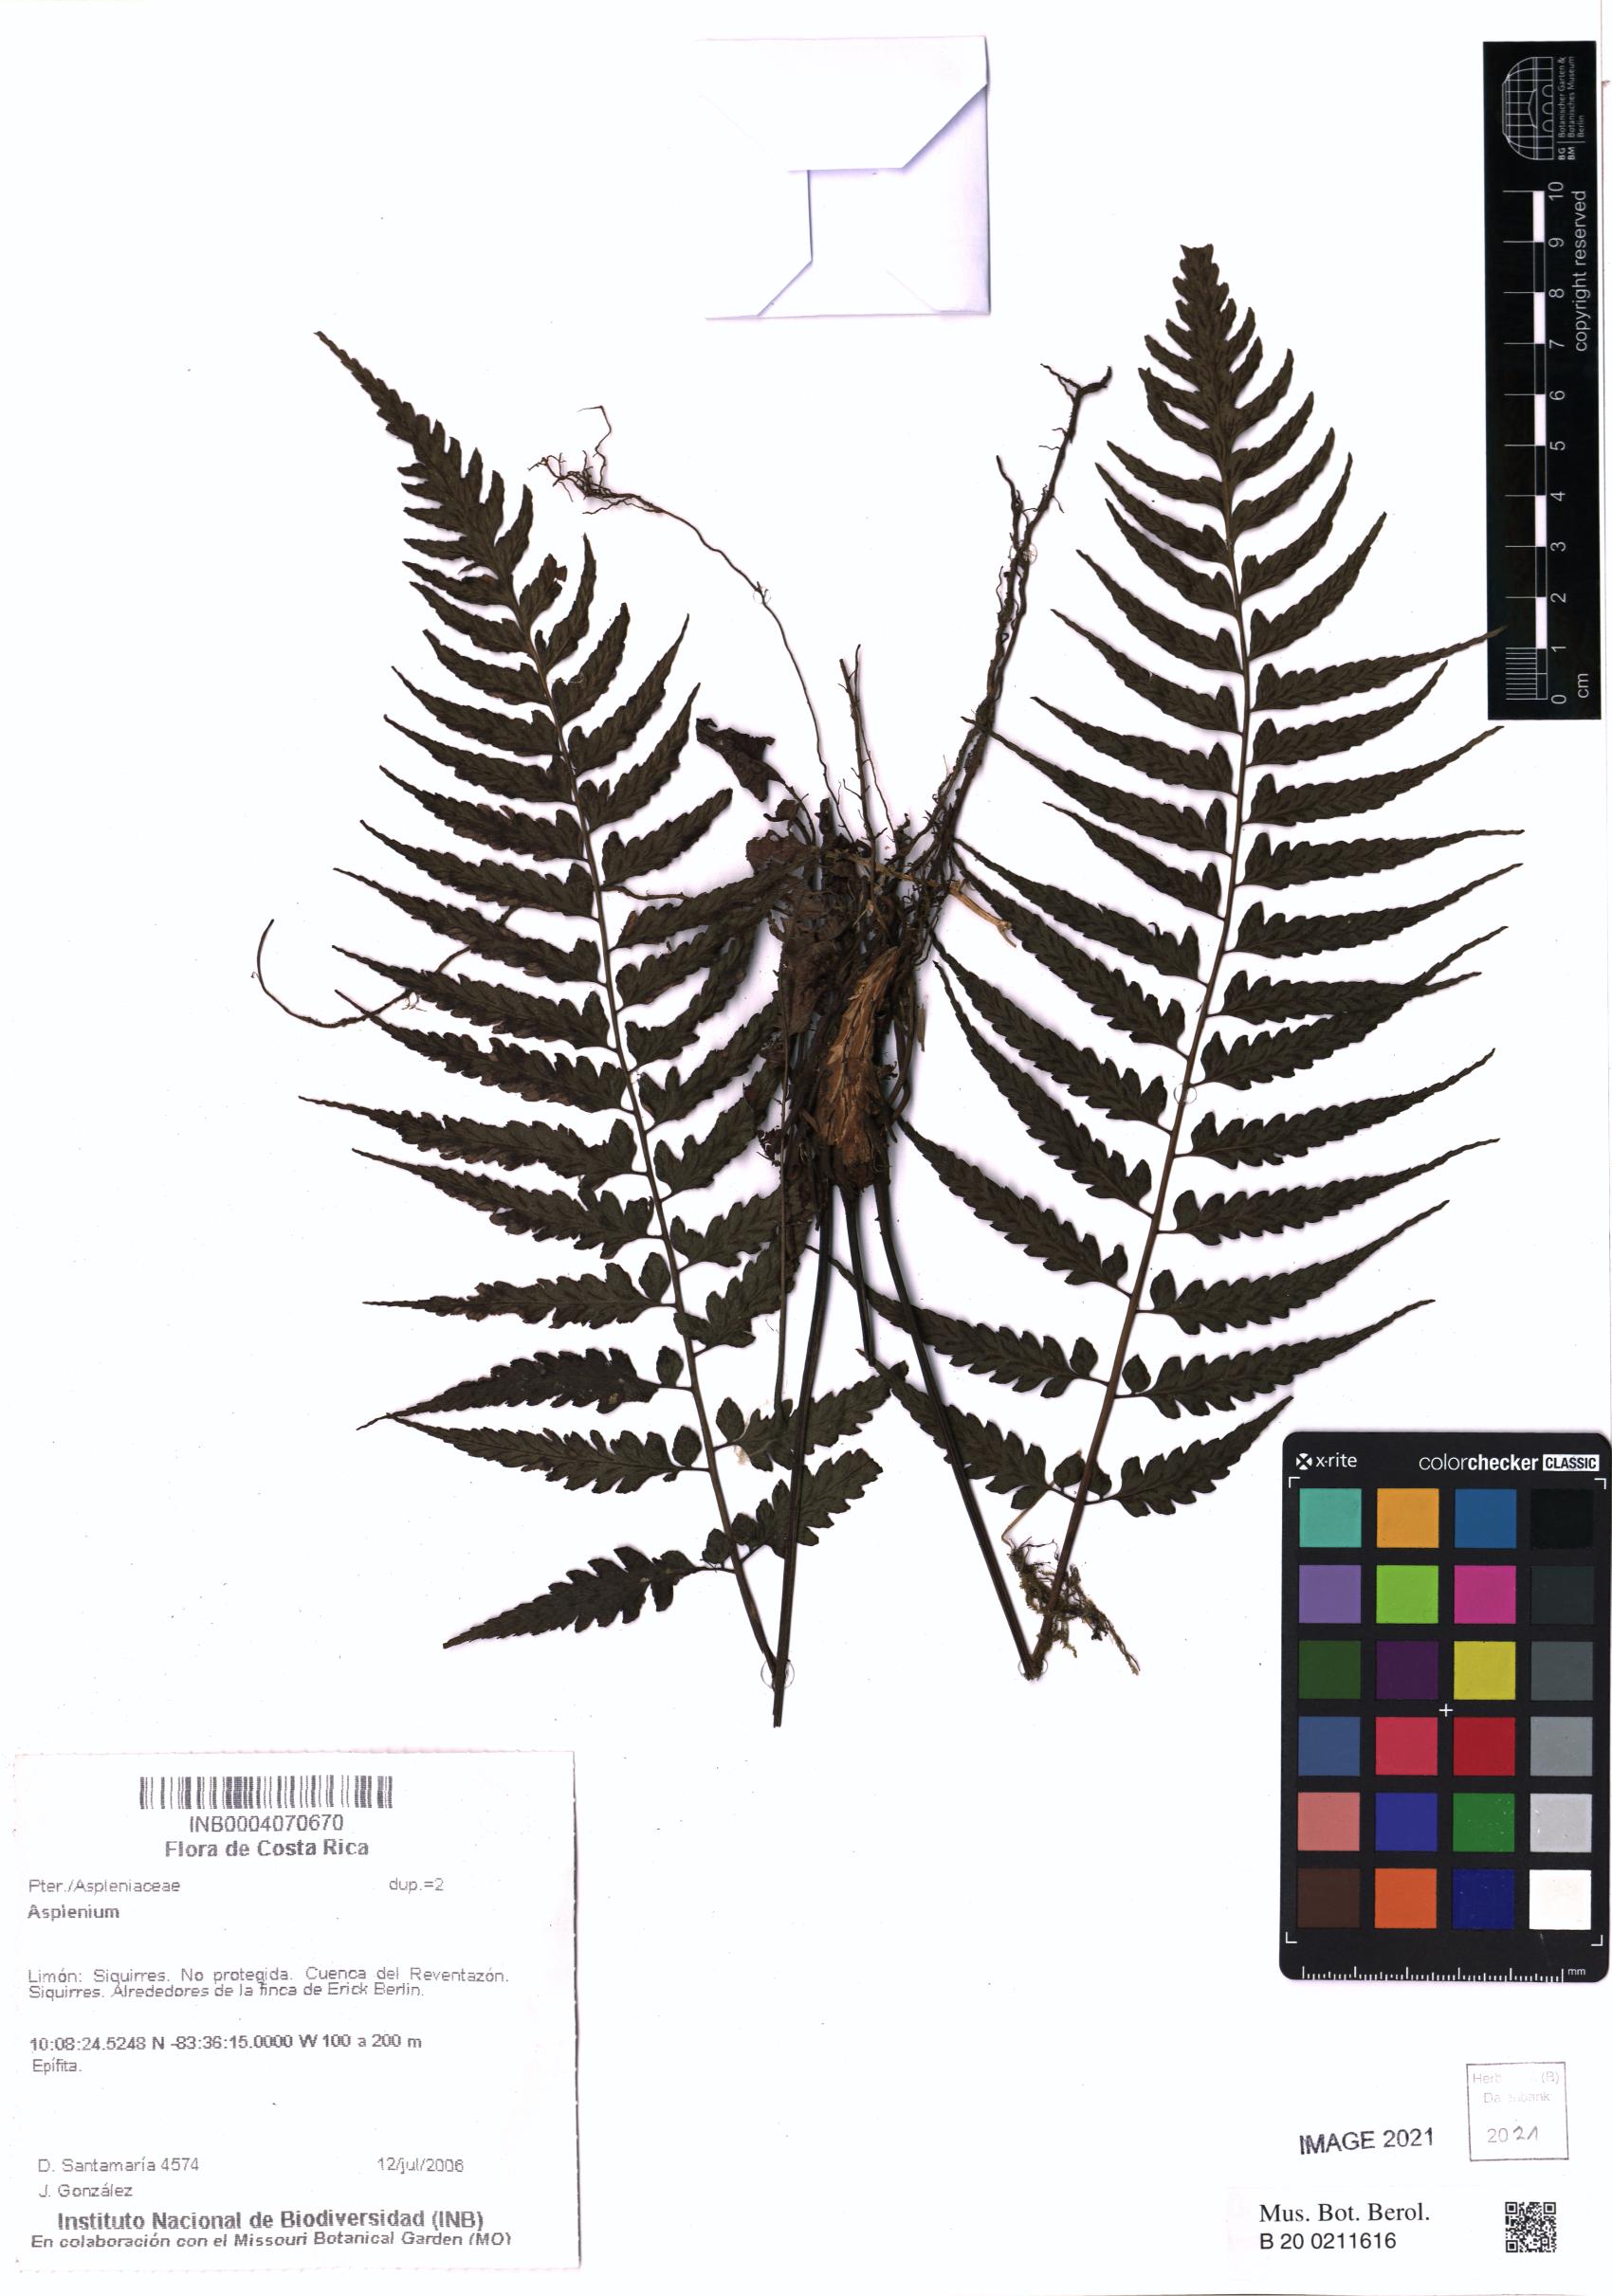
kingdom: Plantae
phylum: Tracheophyta
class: Polypodiopsida
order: Polypodiales
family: Aspleniaceae
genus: Asplenium
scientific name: Asplenium
